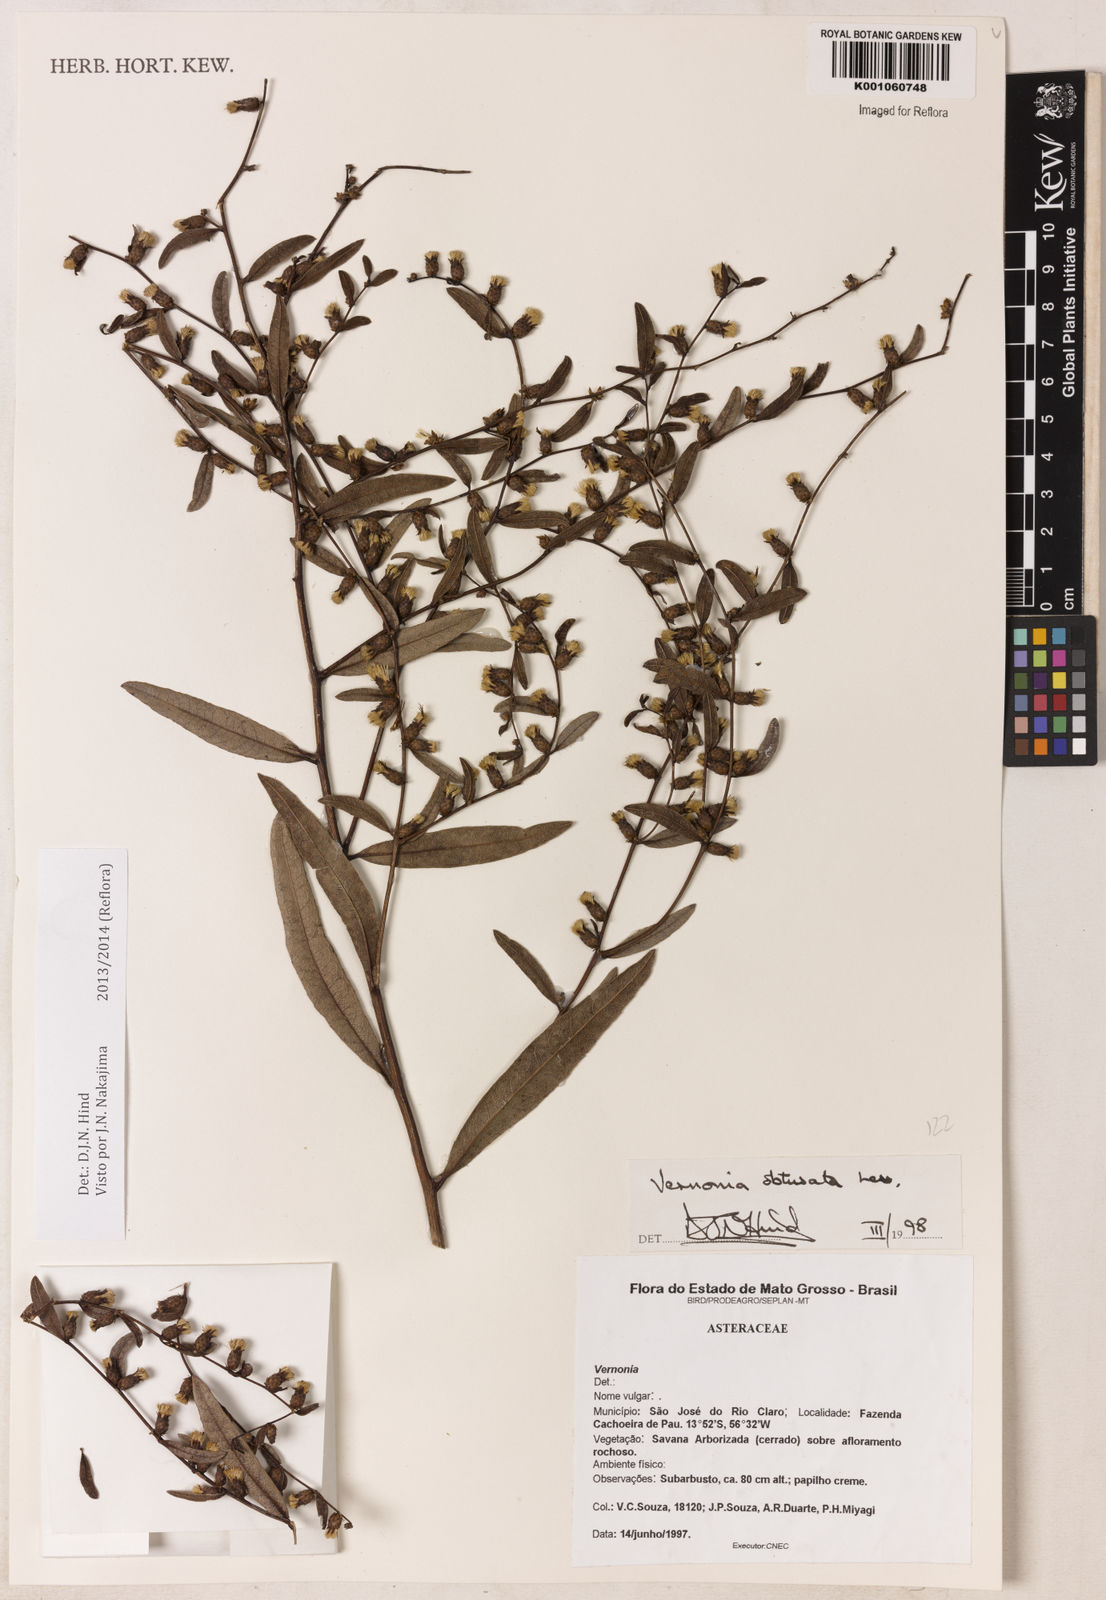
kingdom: Plantae
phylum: Tracheophyta
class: Magnoliopsida
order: Asterales
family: Asteraceae
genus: Lessingianthus
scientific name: Lessingianthus obtusatus
